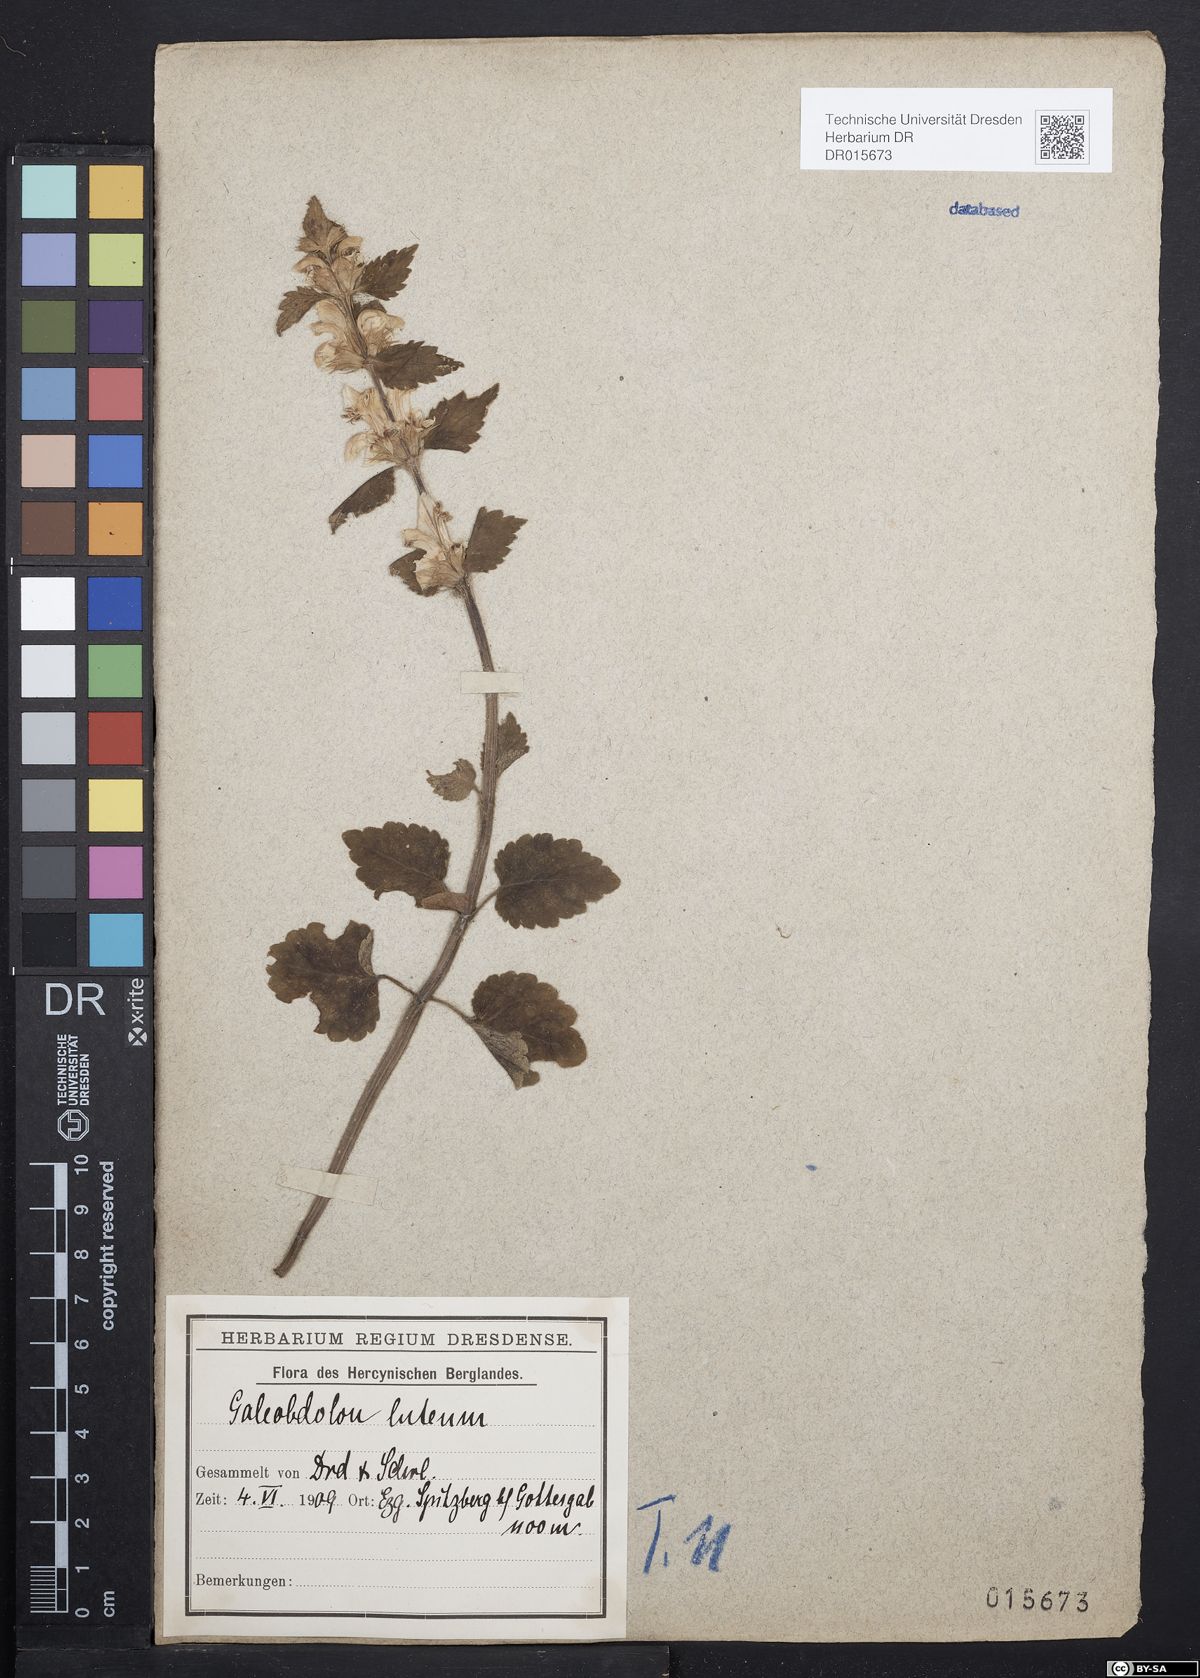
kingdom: Plantae
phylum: Tracheophyta
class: Magnoliopsida
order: Lamiales
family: Lamiaceae
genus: Lamium
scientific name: Lamium galeobdolon
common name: Yellow archangel
